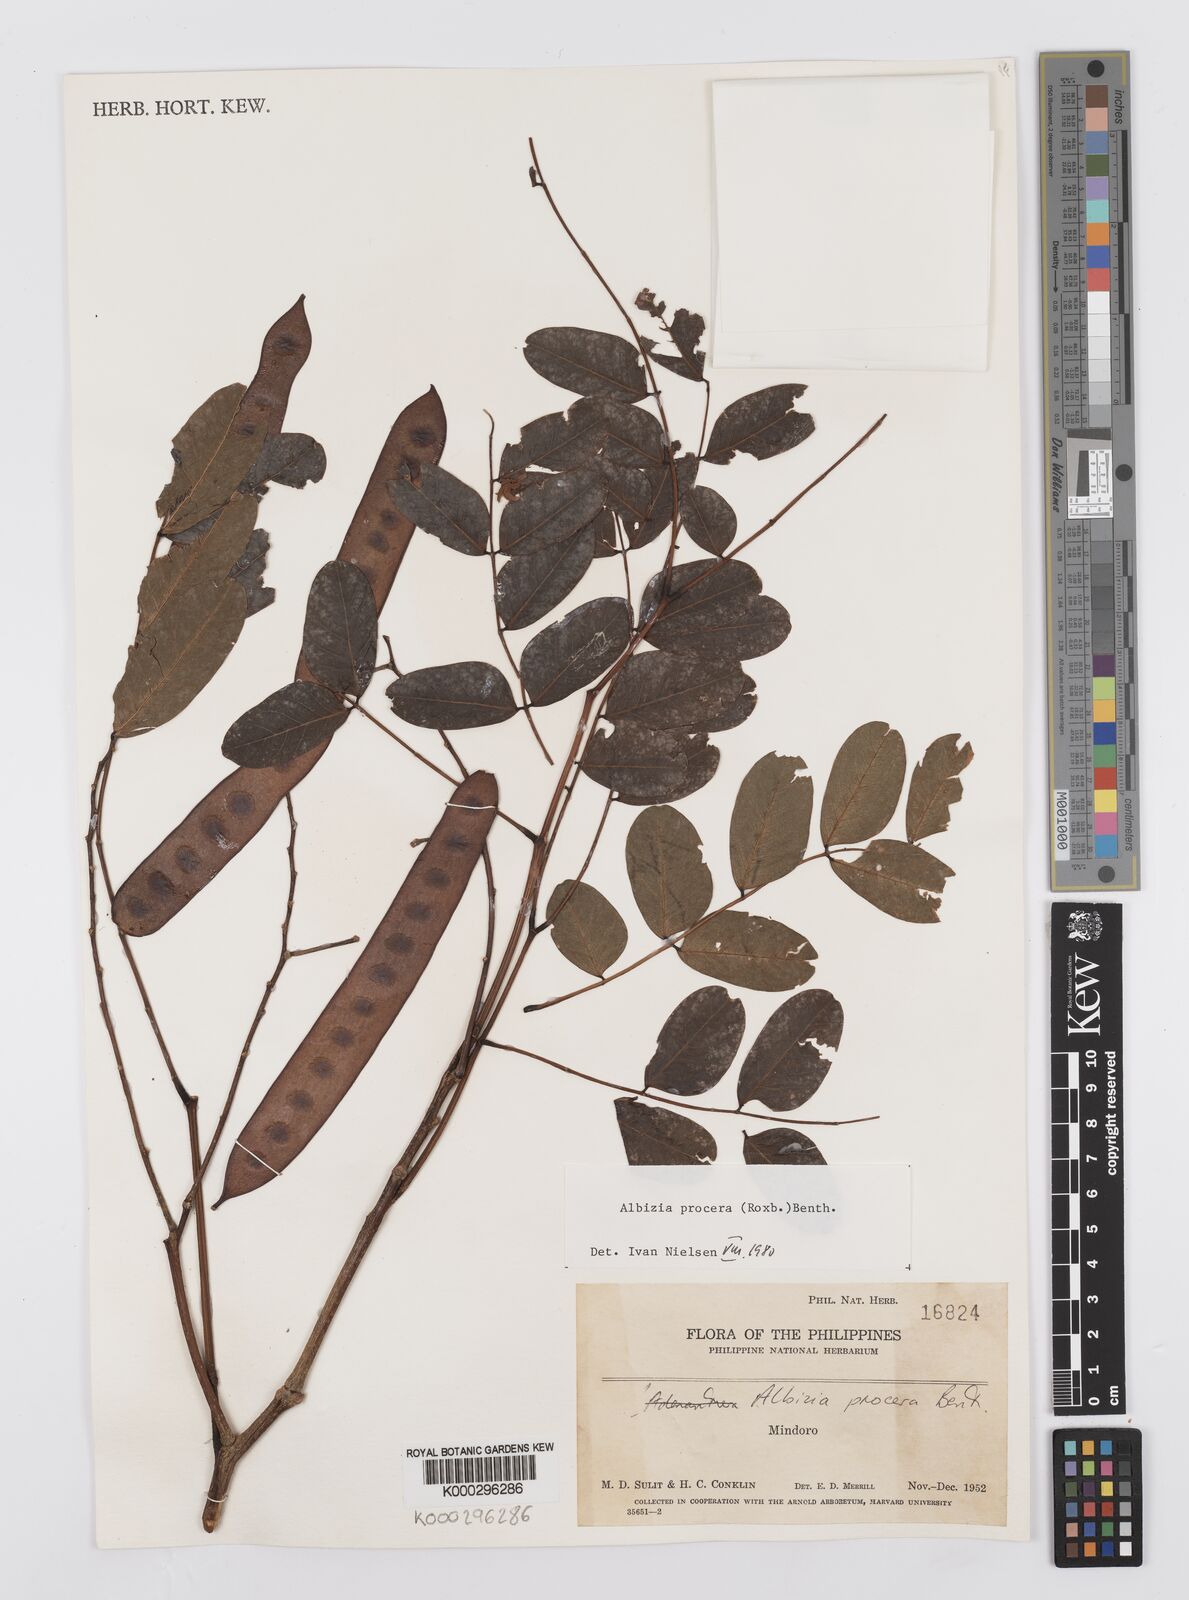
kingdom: Plantae
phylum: Tracheophyta
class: Magnoliopsida
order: Fabales
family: Fabaceae
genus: Albizia
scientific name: Albizia procera
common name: Tall albizia
